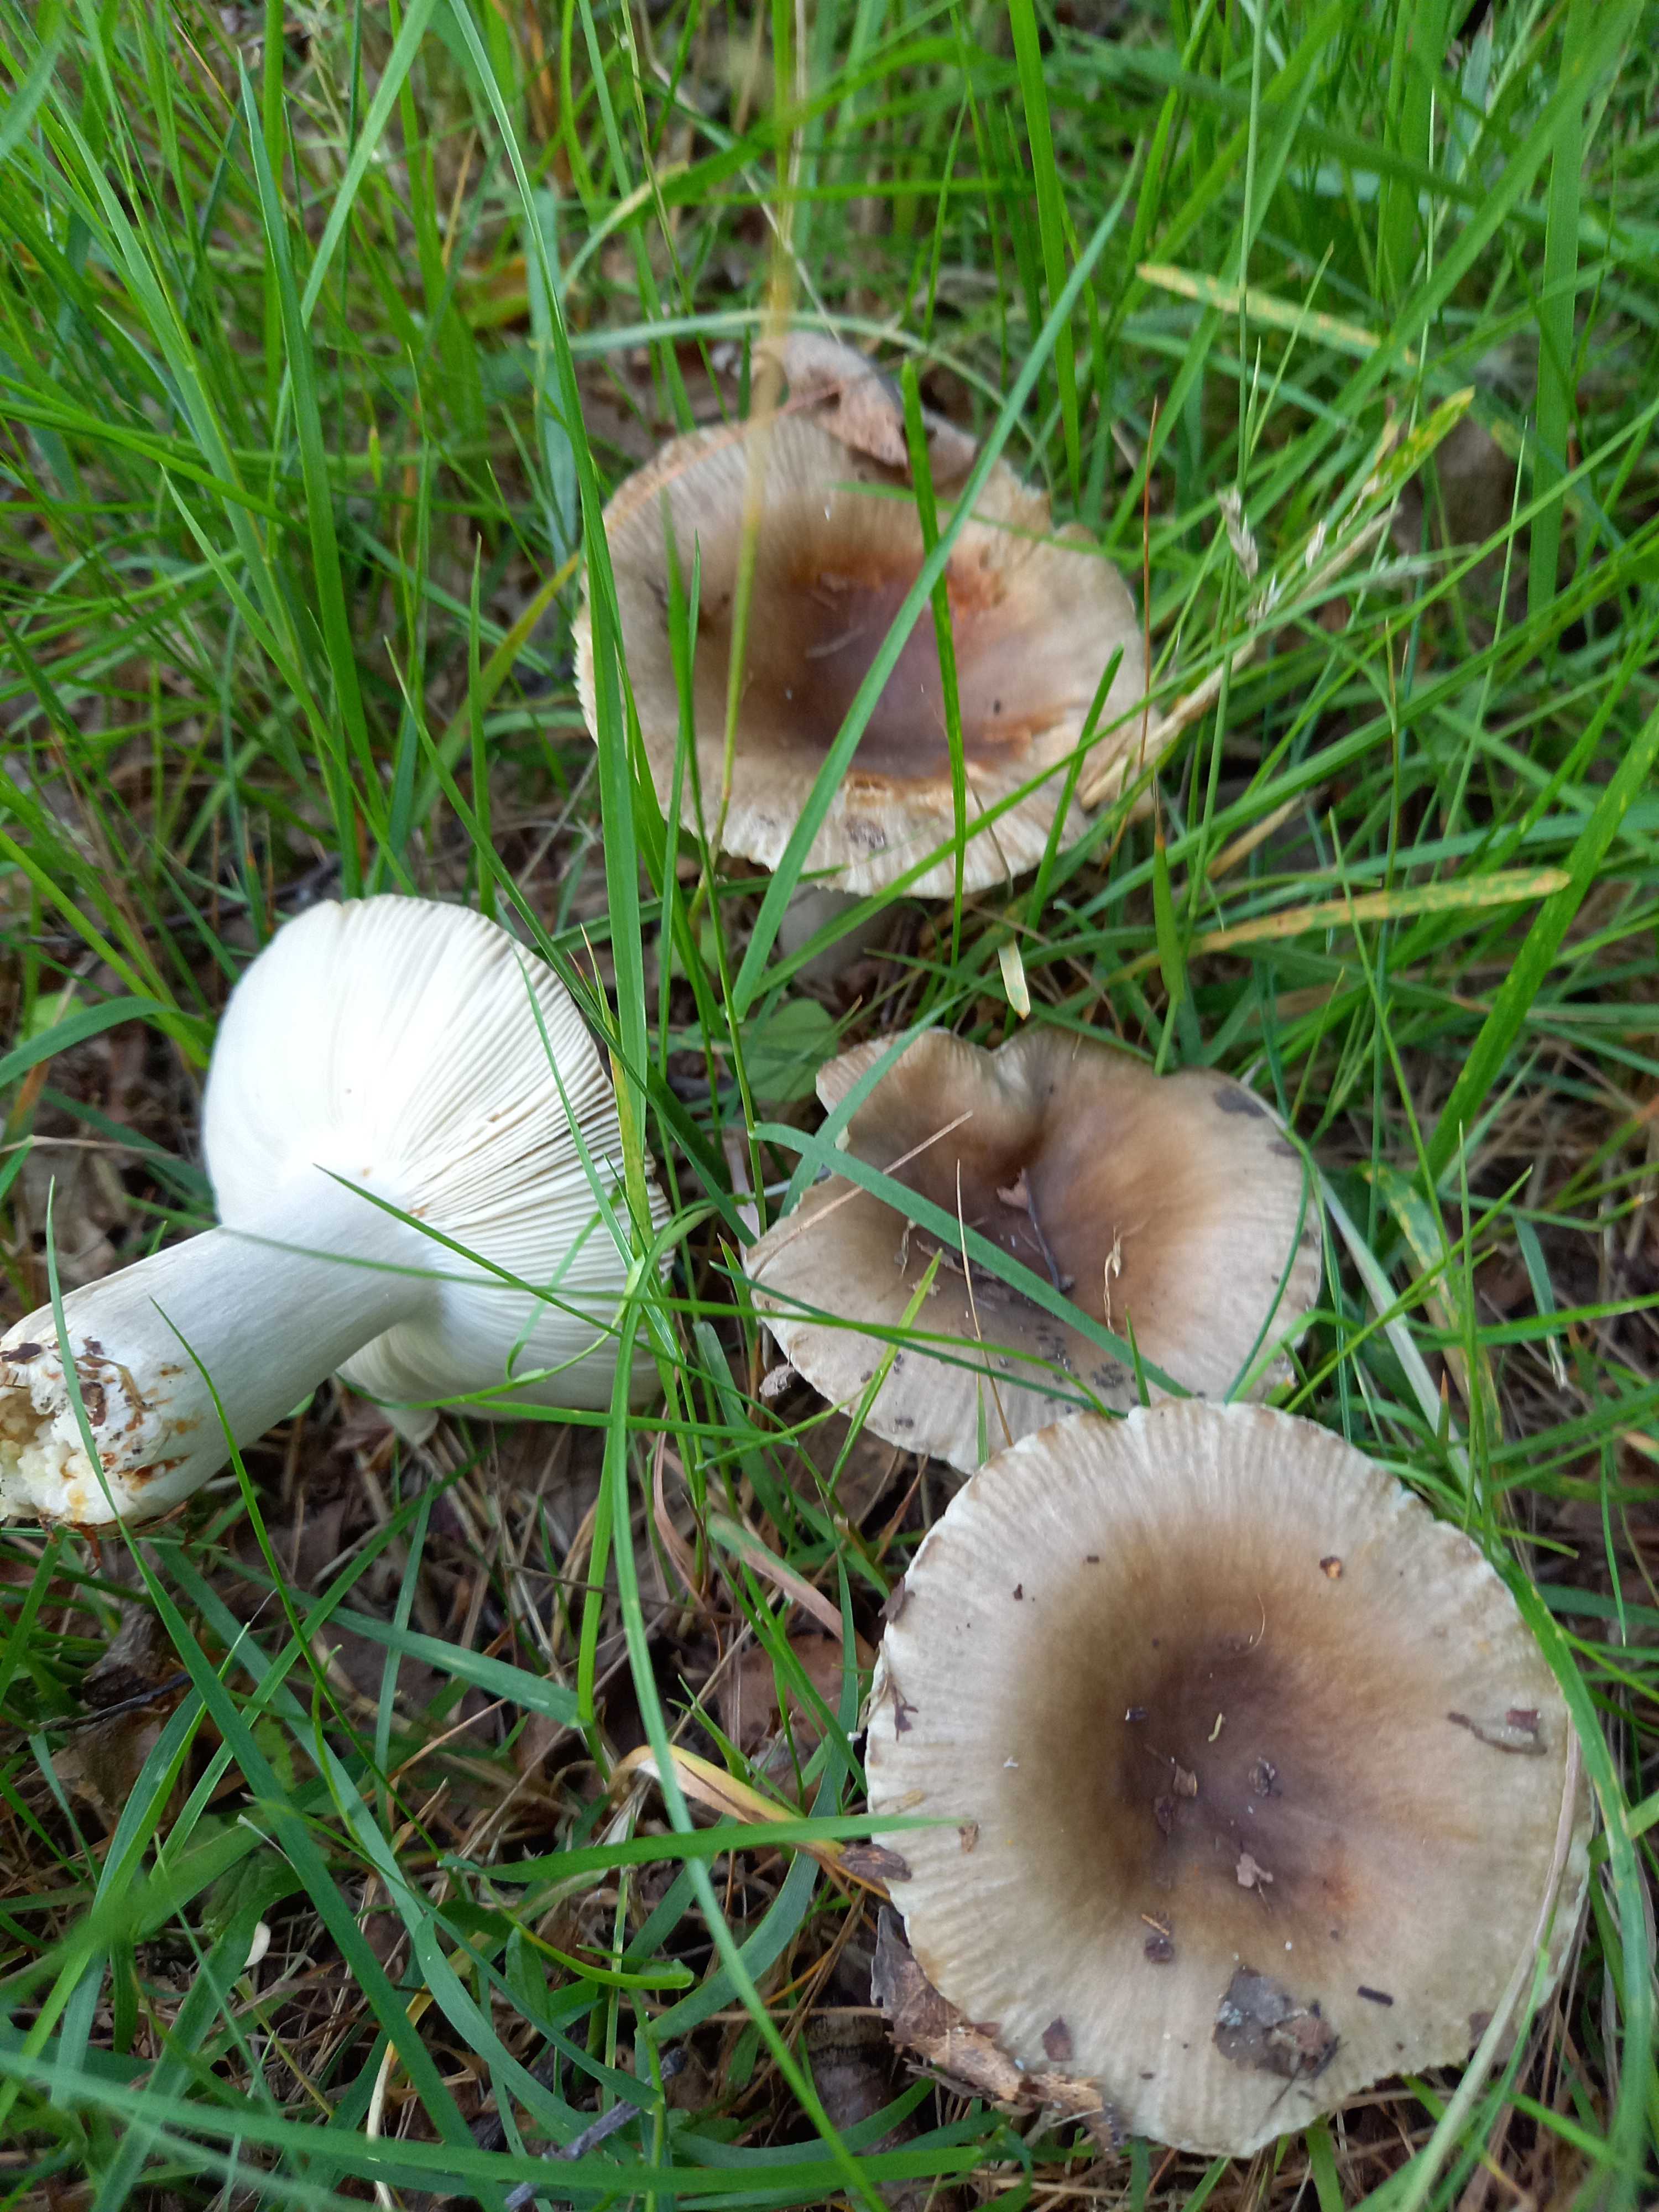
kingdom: Fungi
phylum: Basidiomycota
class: Agaricomycetes
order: Russulales
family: Russulaceae
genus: Russula
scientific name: Russula amoenolens
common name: skarp kam-skørhat
